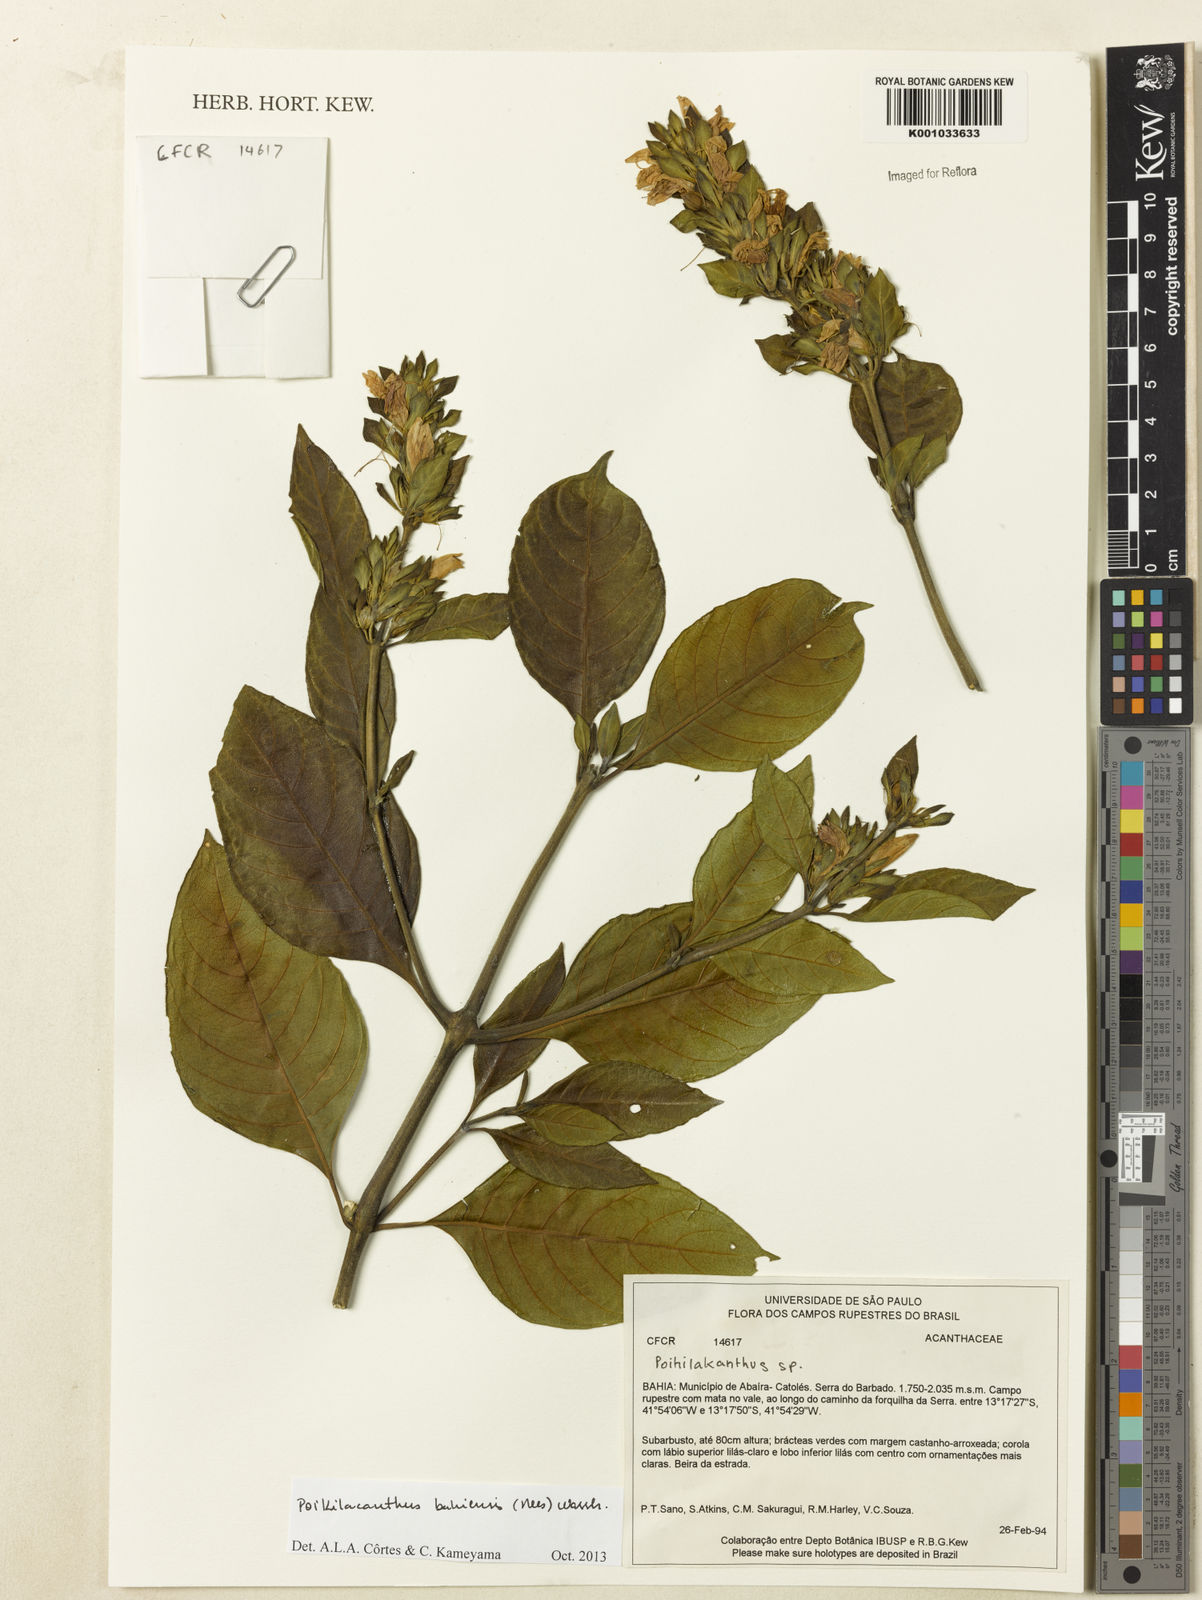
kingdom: Plantae
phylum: Tracheophyta
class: Magnoliopsida
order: Lamiales
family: Acanthaceae
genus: Poikilacanthus
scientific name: Poikilacanthus bahiensis
